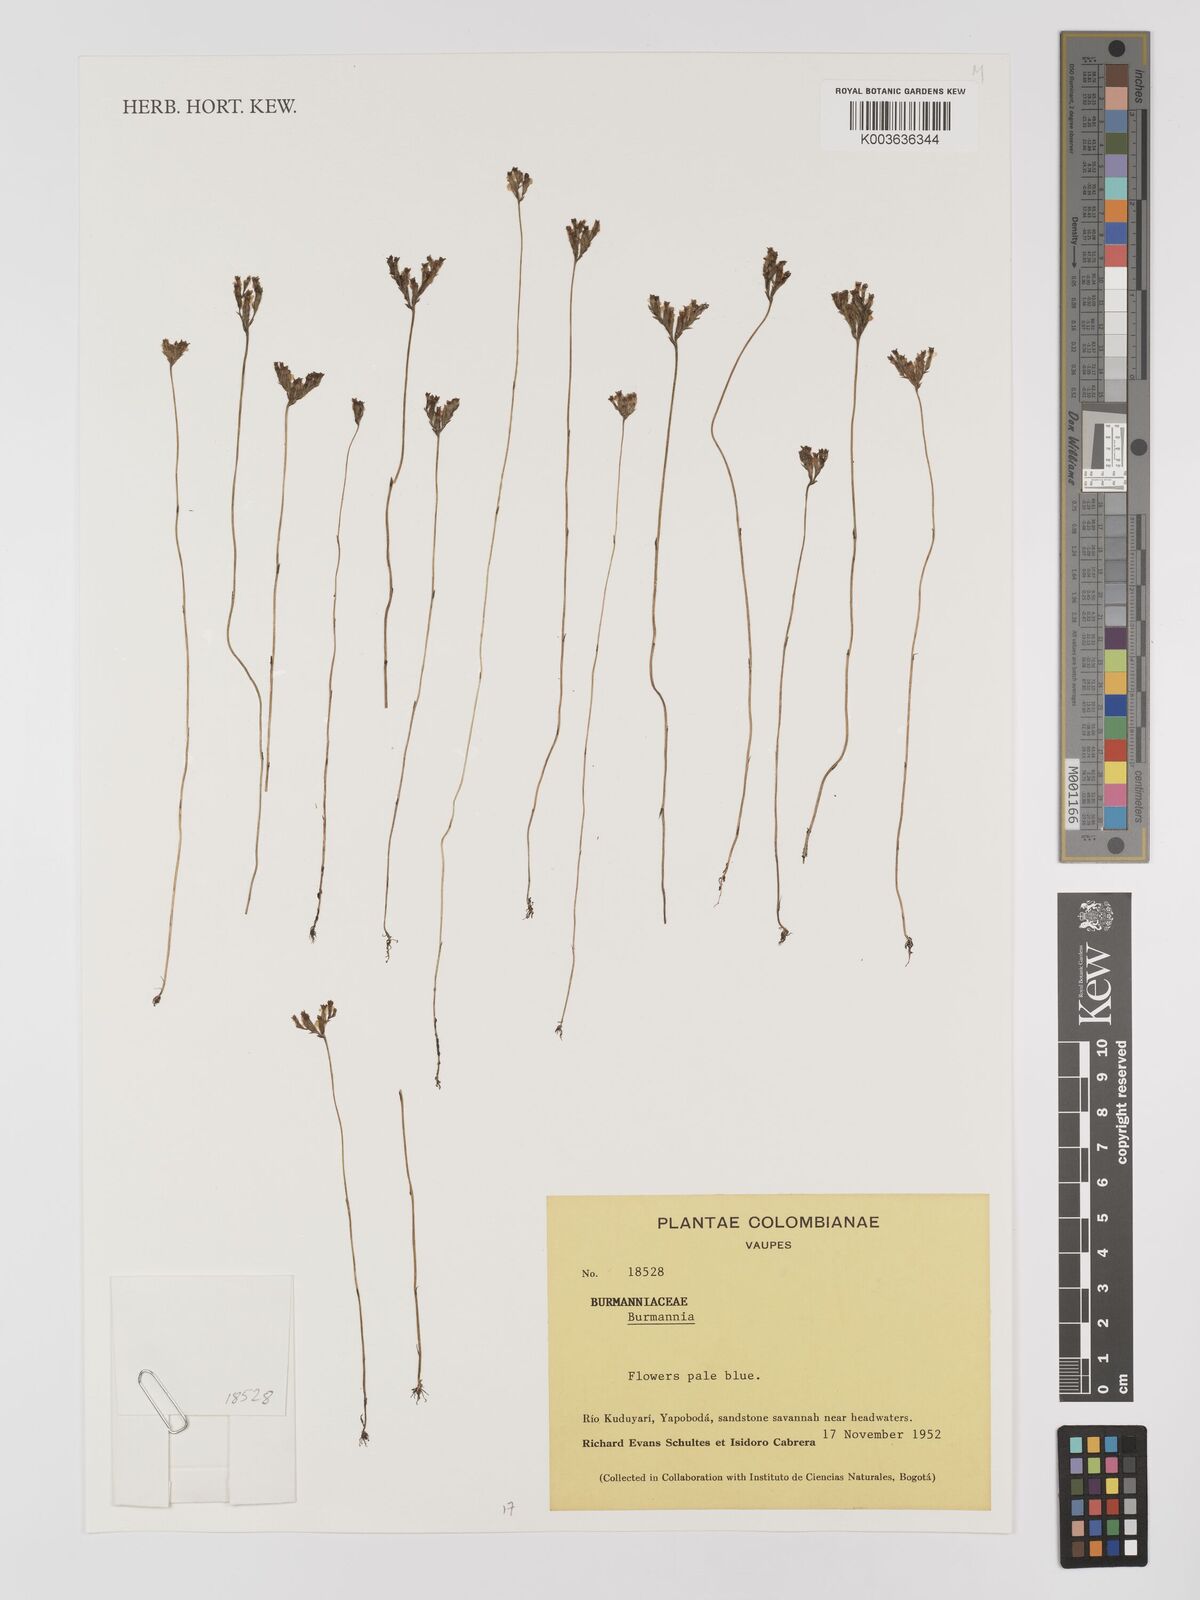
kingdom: Plantae
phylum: Tracheophyta
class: Liliopsida
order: Dioscoreales
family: Burmanniaceae
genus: Burmannia
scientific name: Burmannia
